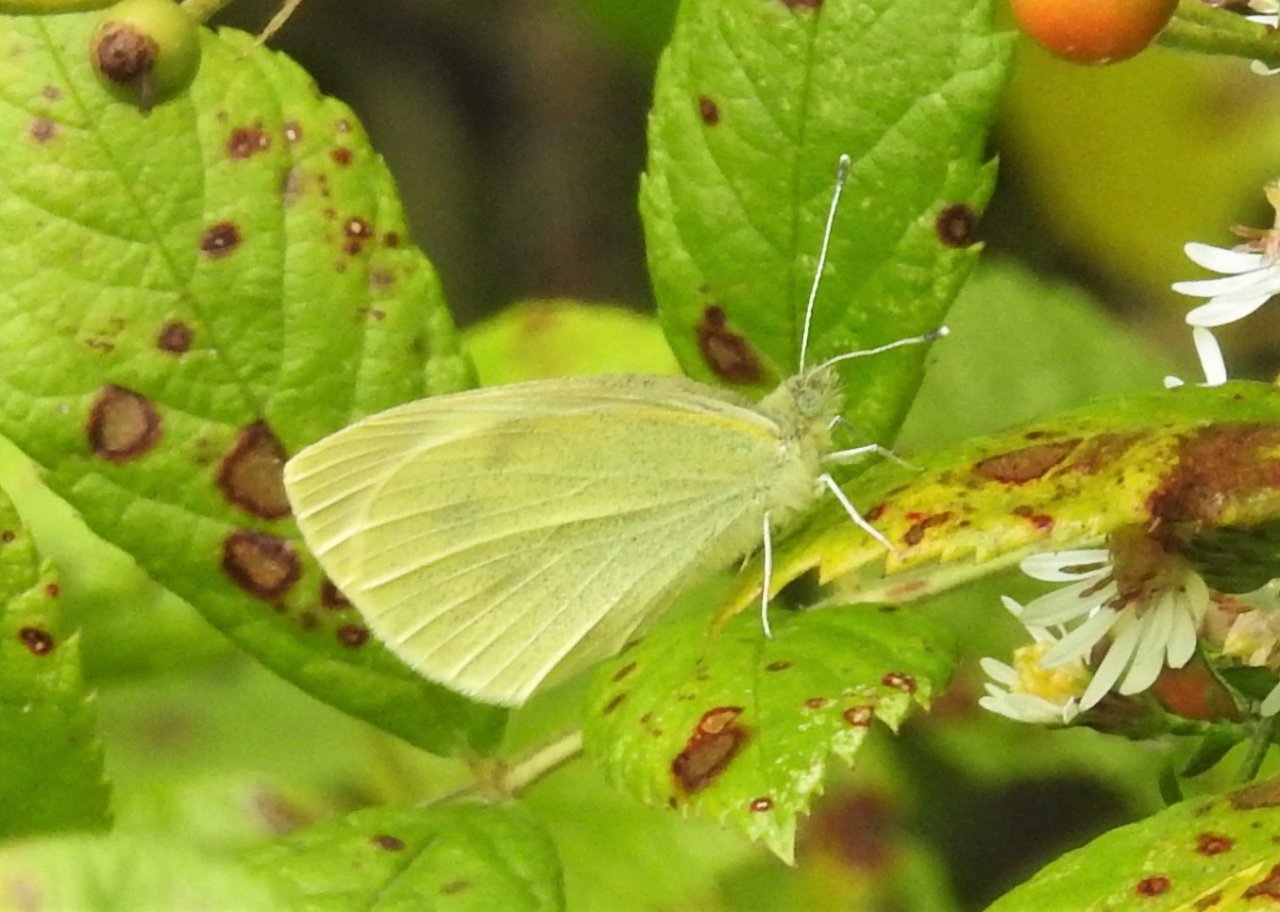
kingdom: Animalia
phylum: Arthropoda
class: Insecta
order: Lepidoptera
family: Pieridae
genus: Pieris
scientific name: Pieris rapae
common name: Cabbage White
